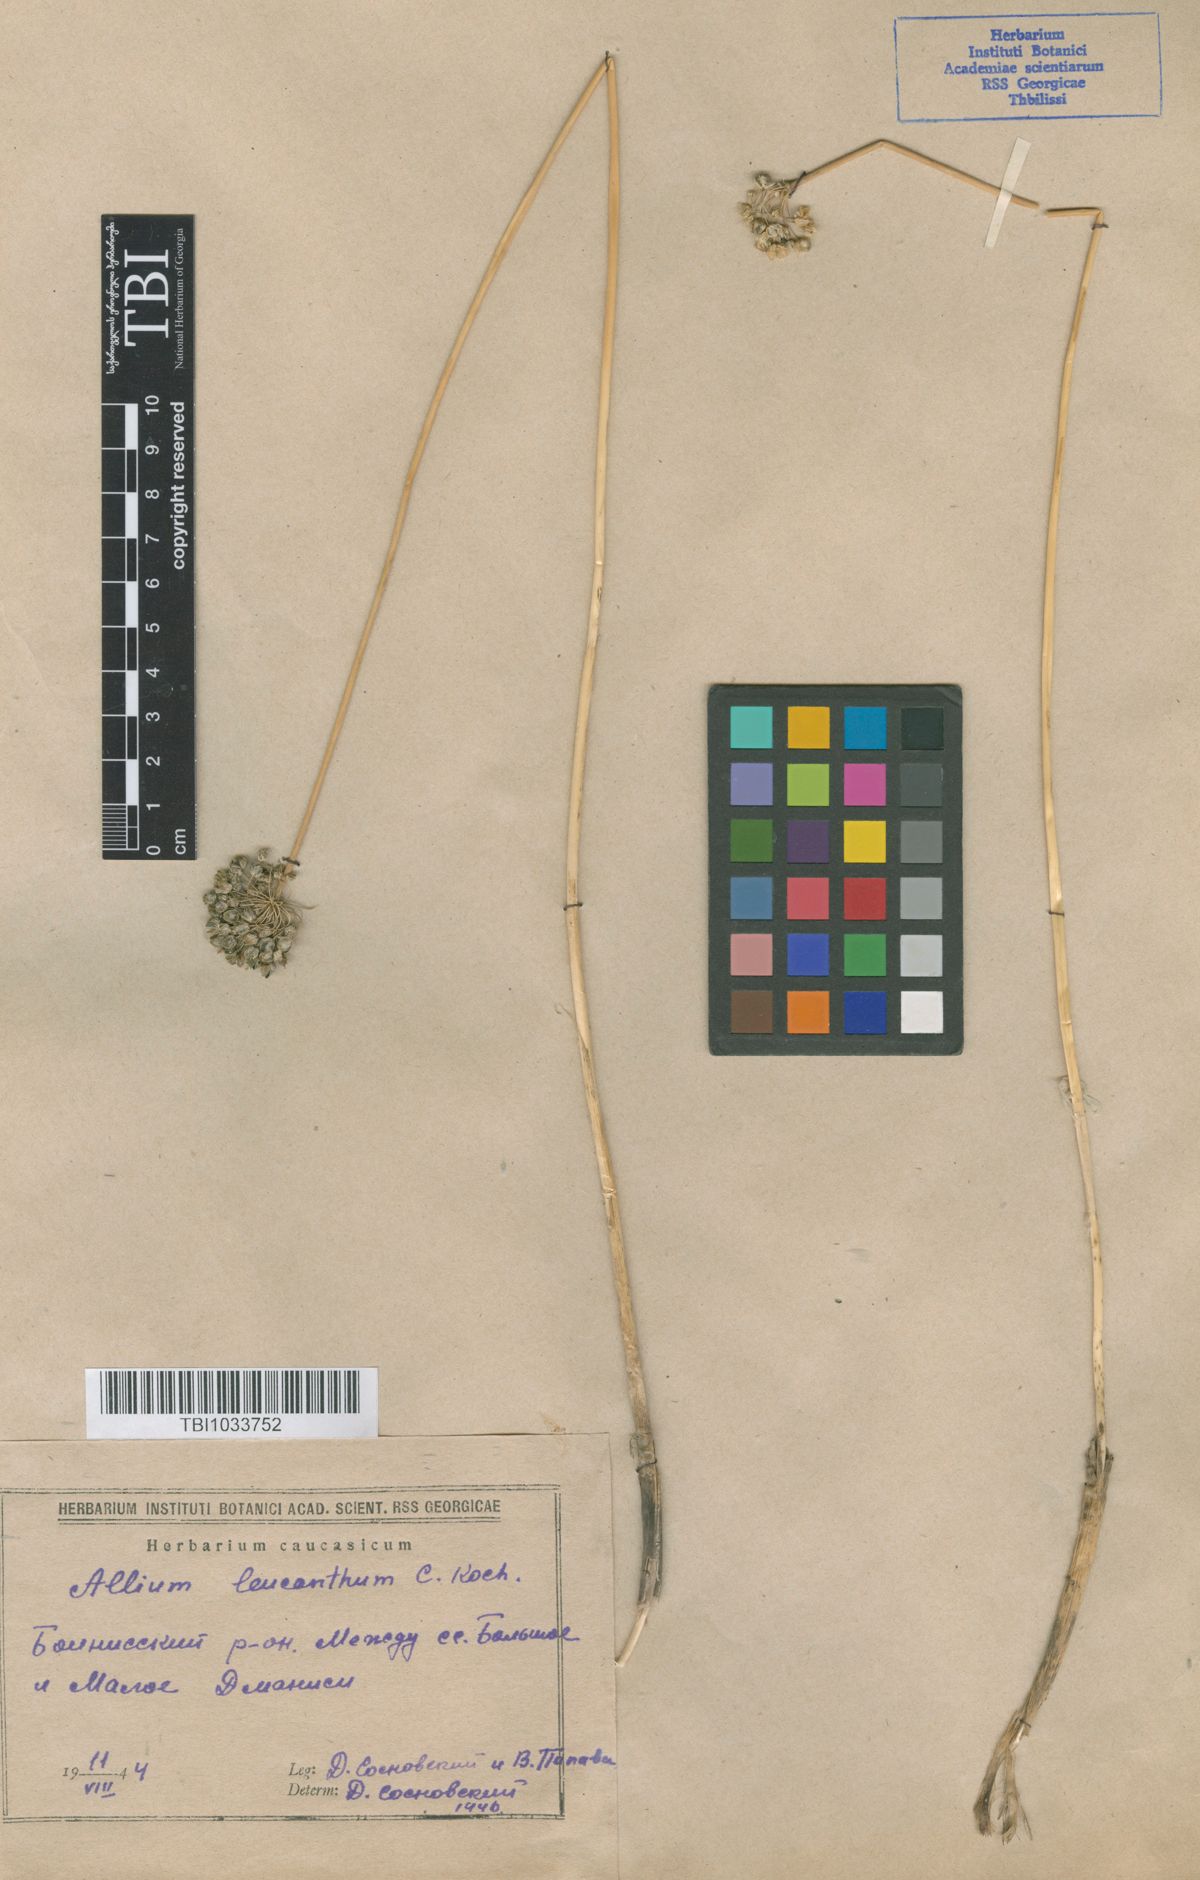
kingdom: Plantae
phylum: Tracheophyta
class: Liliopsida
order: Asparagales
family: Amaryllidaceae
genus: Allium
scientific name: Allium ampeloprasum
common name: Wild leek
